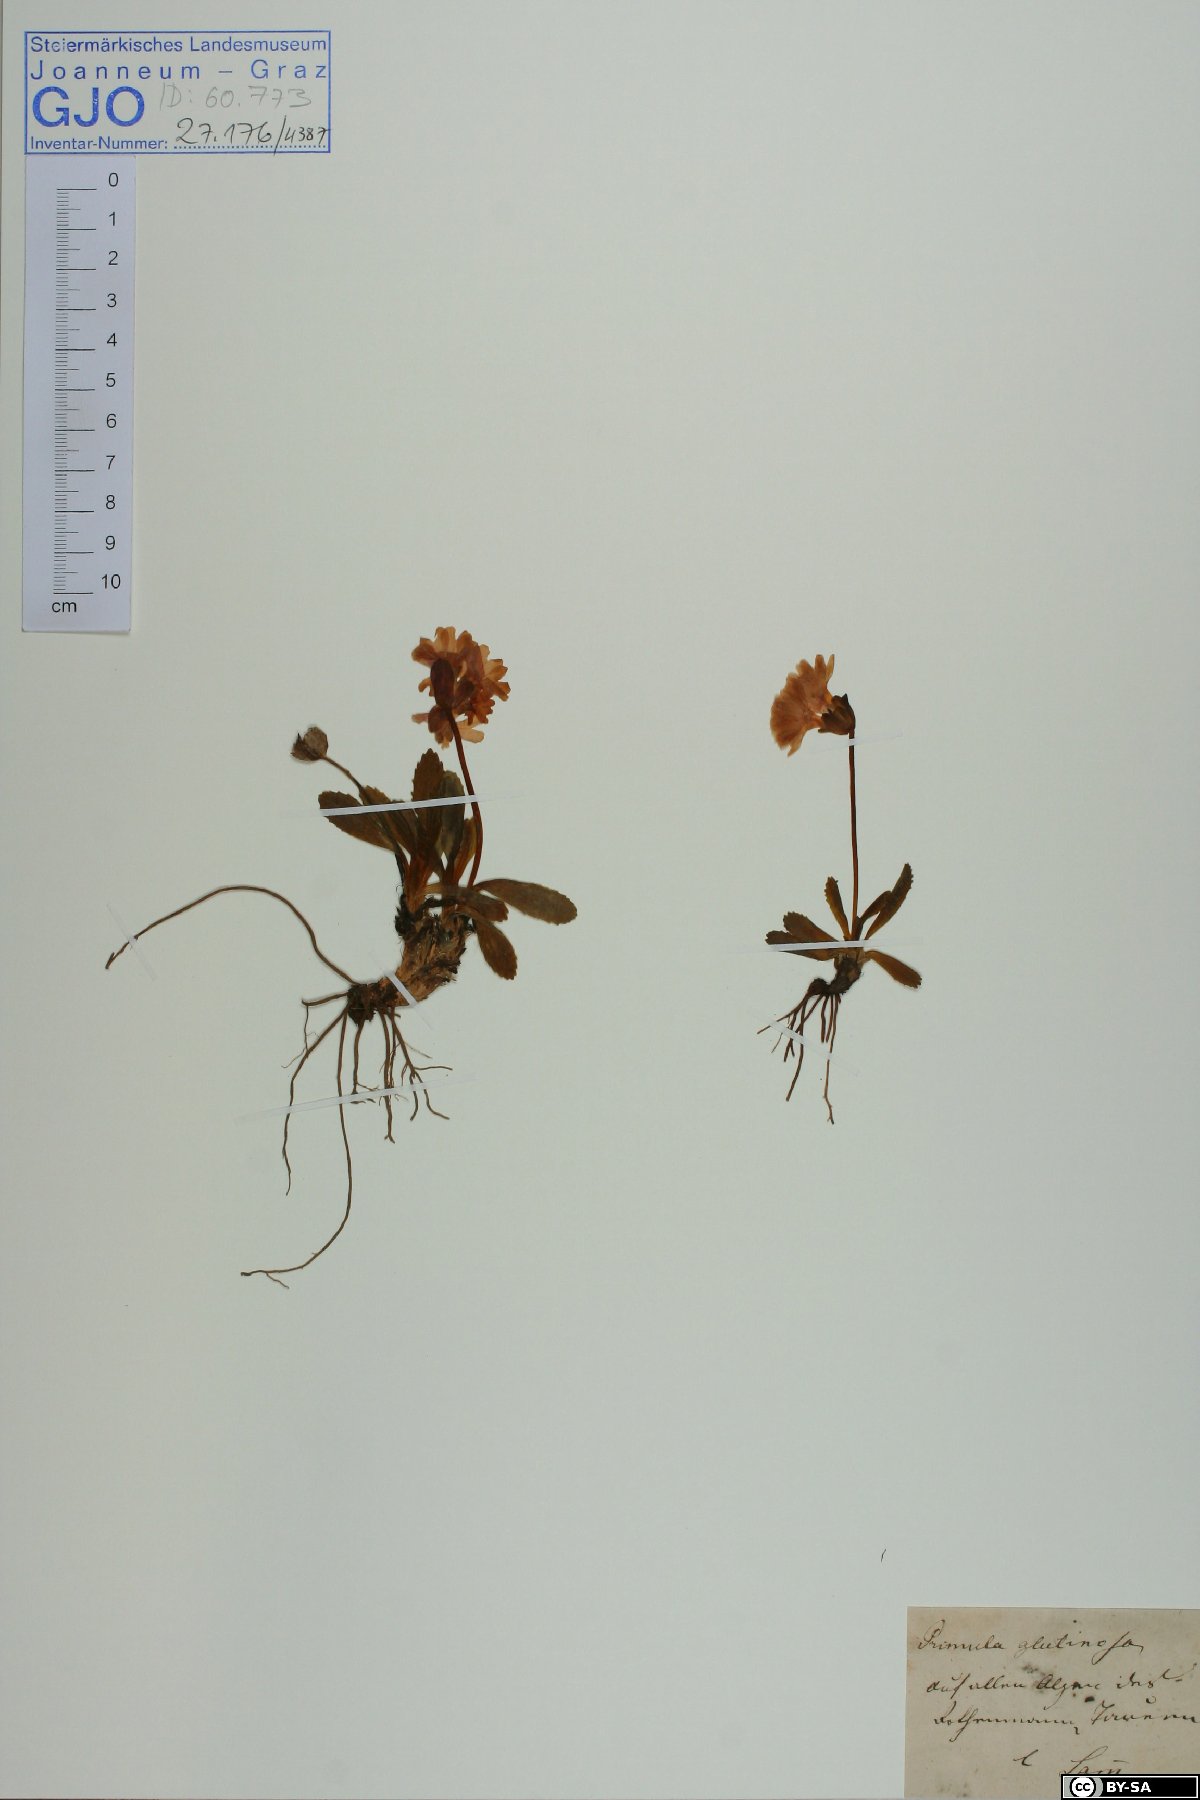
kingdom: Plantae
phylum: Tracheophyta
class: Magnoliopsida
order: Ericales
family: Primulaceae
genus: Primula
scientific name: Primula glutinosa
